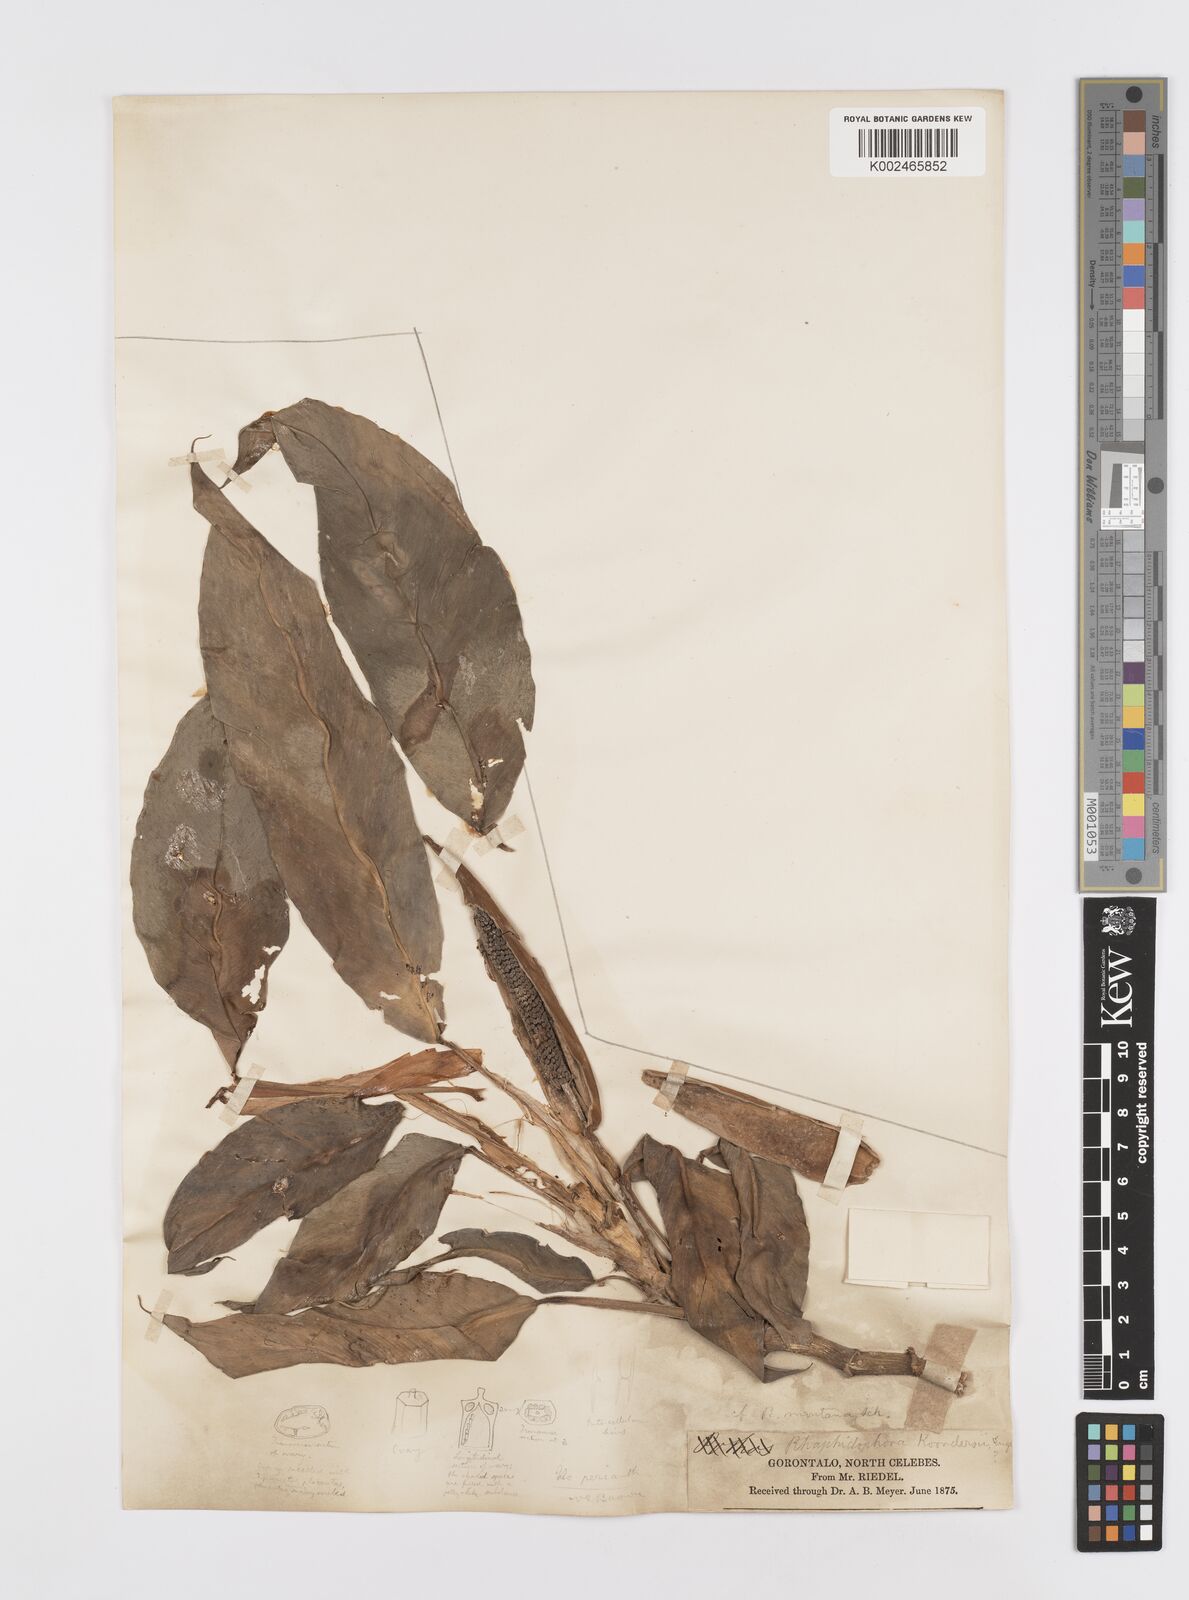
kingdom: Plantae
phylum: Tracheophyta
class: Liliopsida
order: Alismatales
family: Araceae
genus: Rhaphidophora
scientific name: Rhaphidophora koordersii
